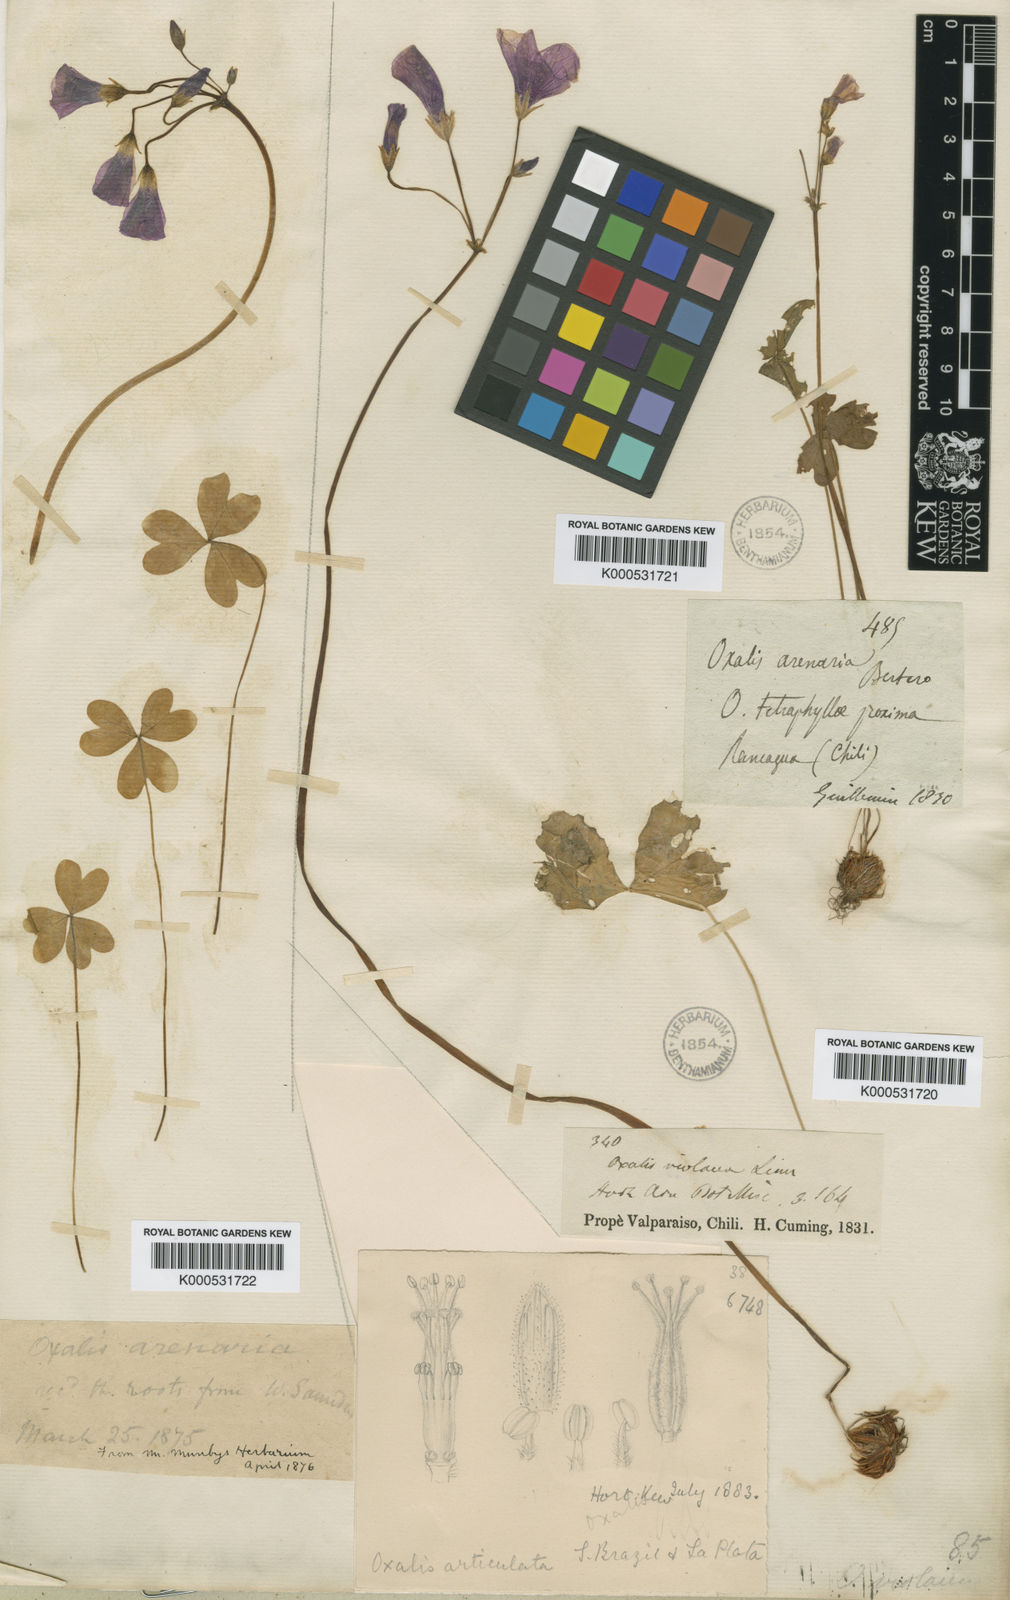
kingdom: Plantae
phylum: Tracheophyta
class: Magnoliopsida
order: Oxalidales
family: Oxalidaceae
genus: Oxalis
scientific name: Oxalis arenaria
